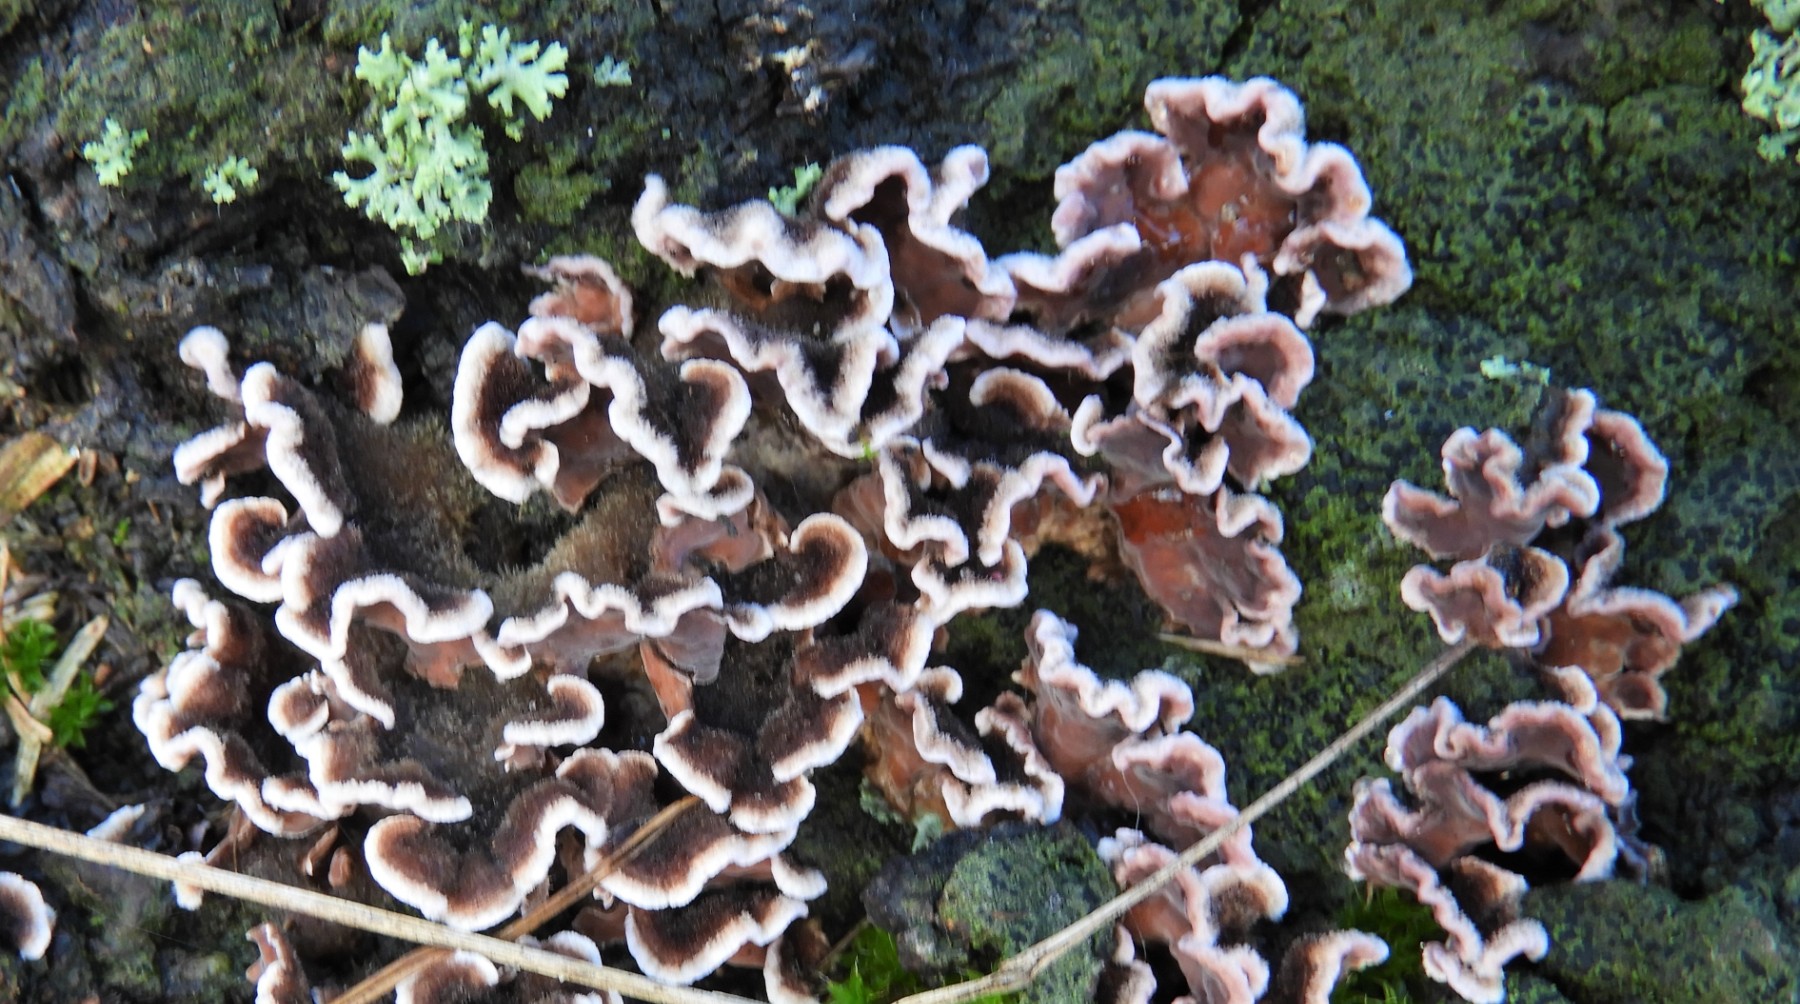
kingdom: Fungi
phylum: Basidiomycota
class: Agaricomycetes
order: Agaricales
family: Cyphellaceae
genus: Chondrostereum
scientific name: Chondrostereum purpureum
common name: purpurlædersvamp
